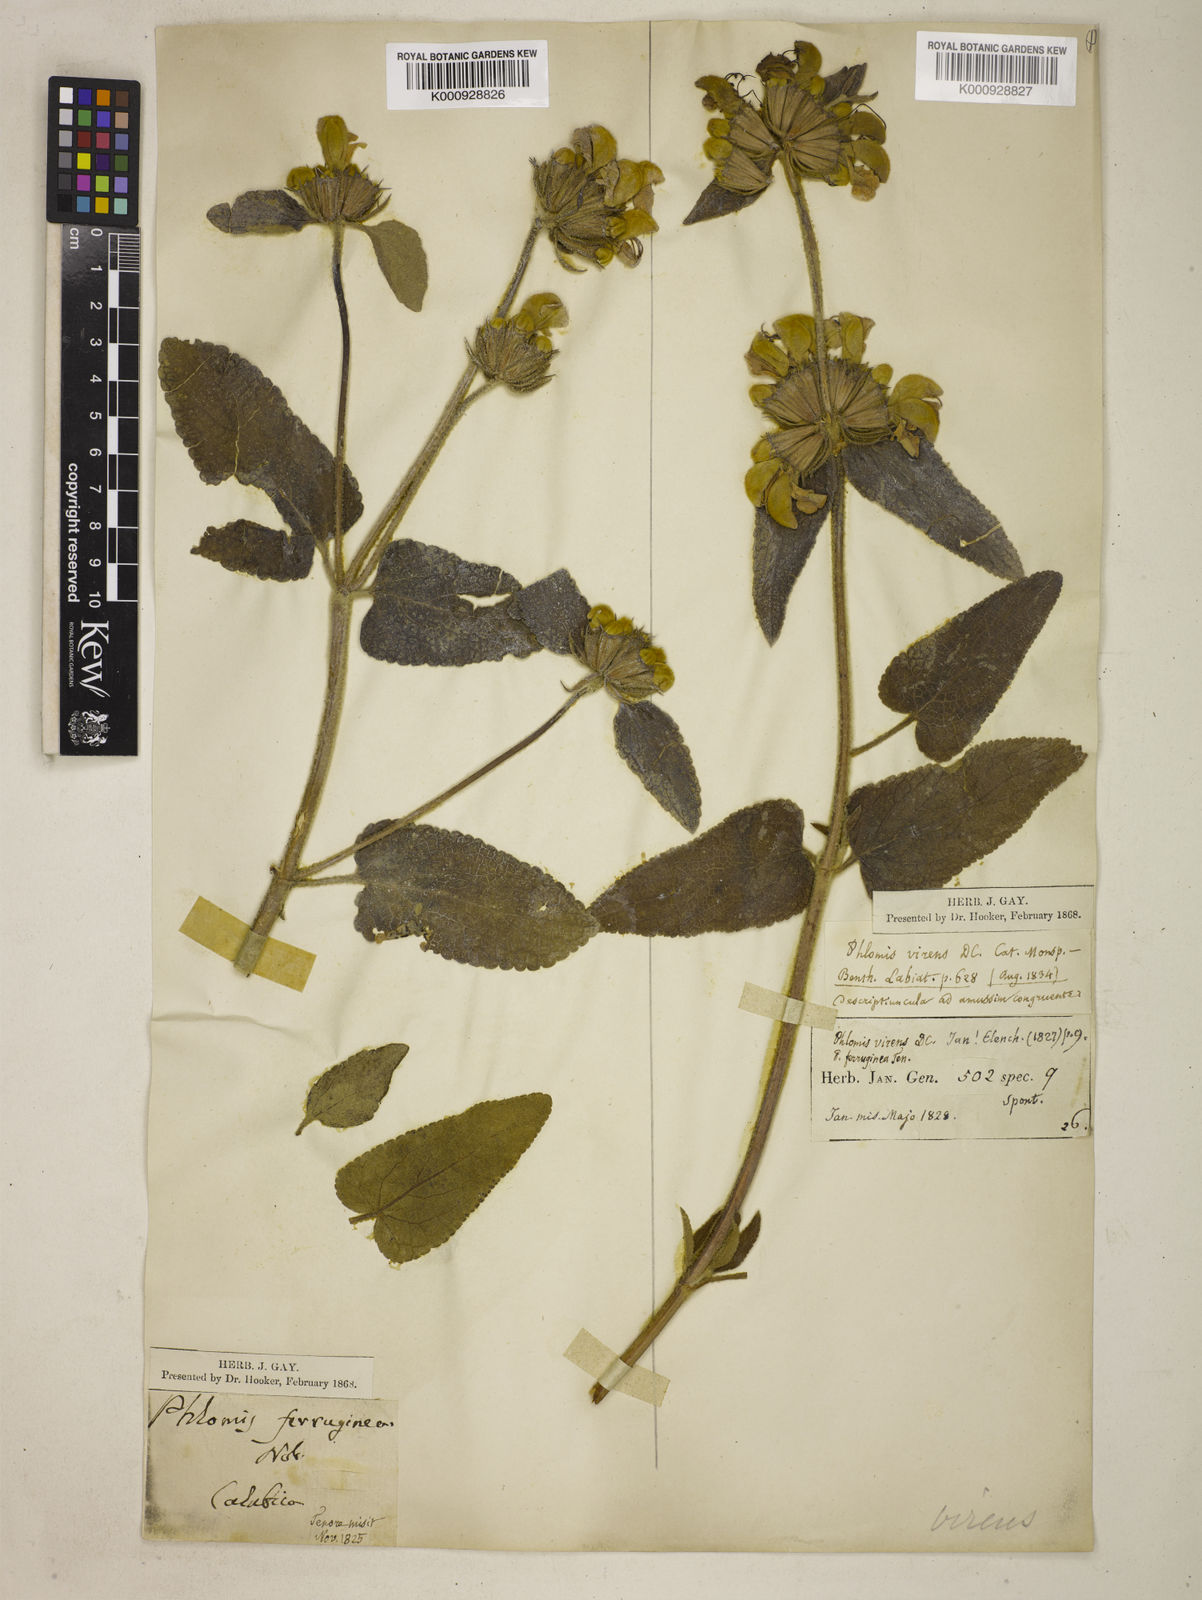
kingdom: Plantae
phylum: Tracheophyta
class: Magnoliopsida
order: Lamiales
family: Lamiaceae
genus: Phlomis
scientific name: Phlomis tenorei
